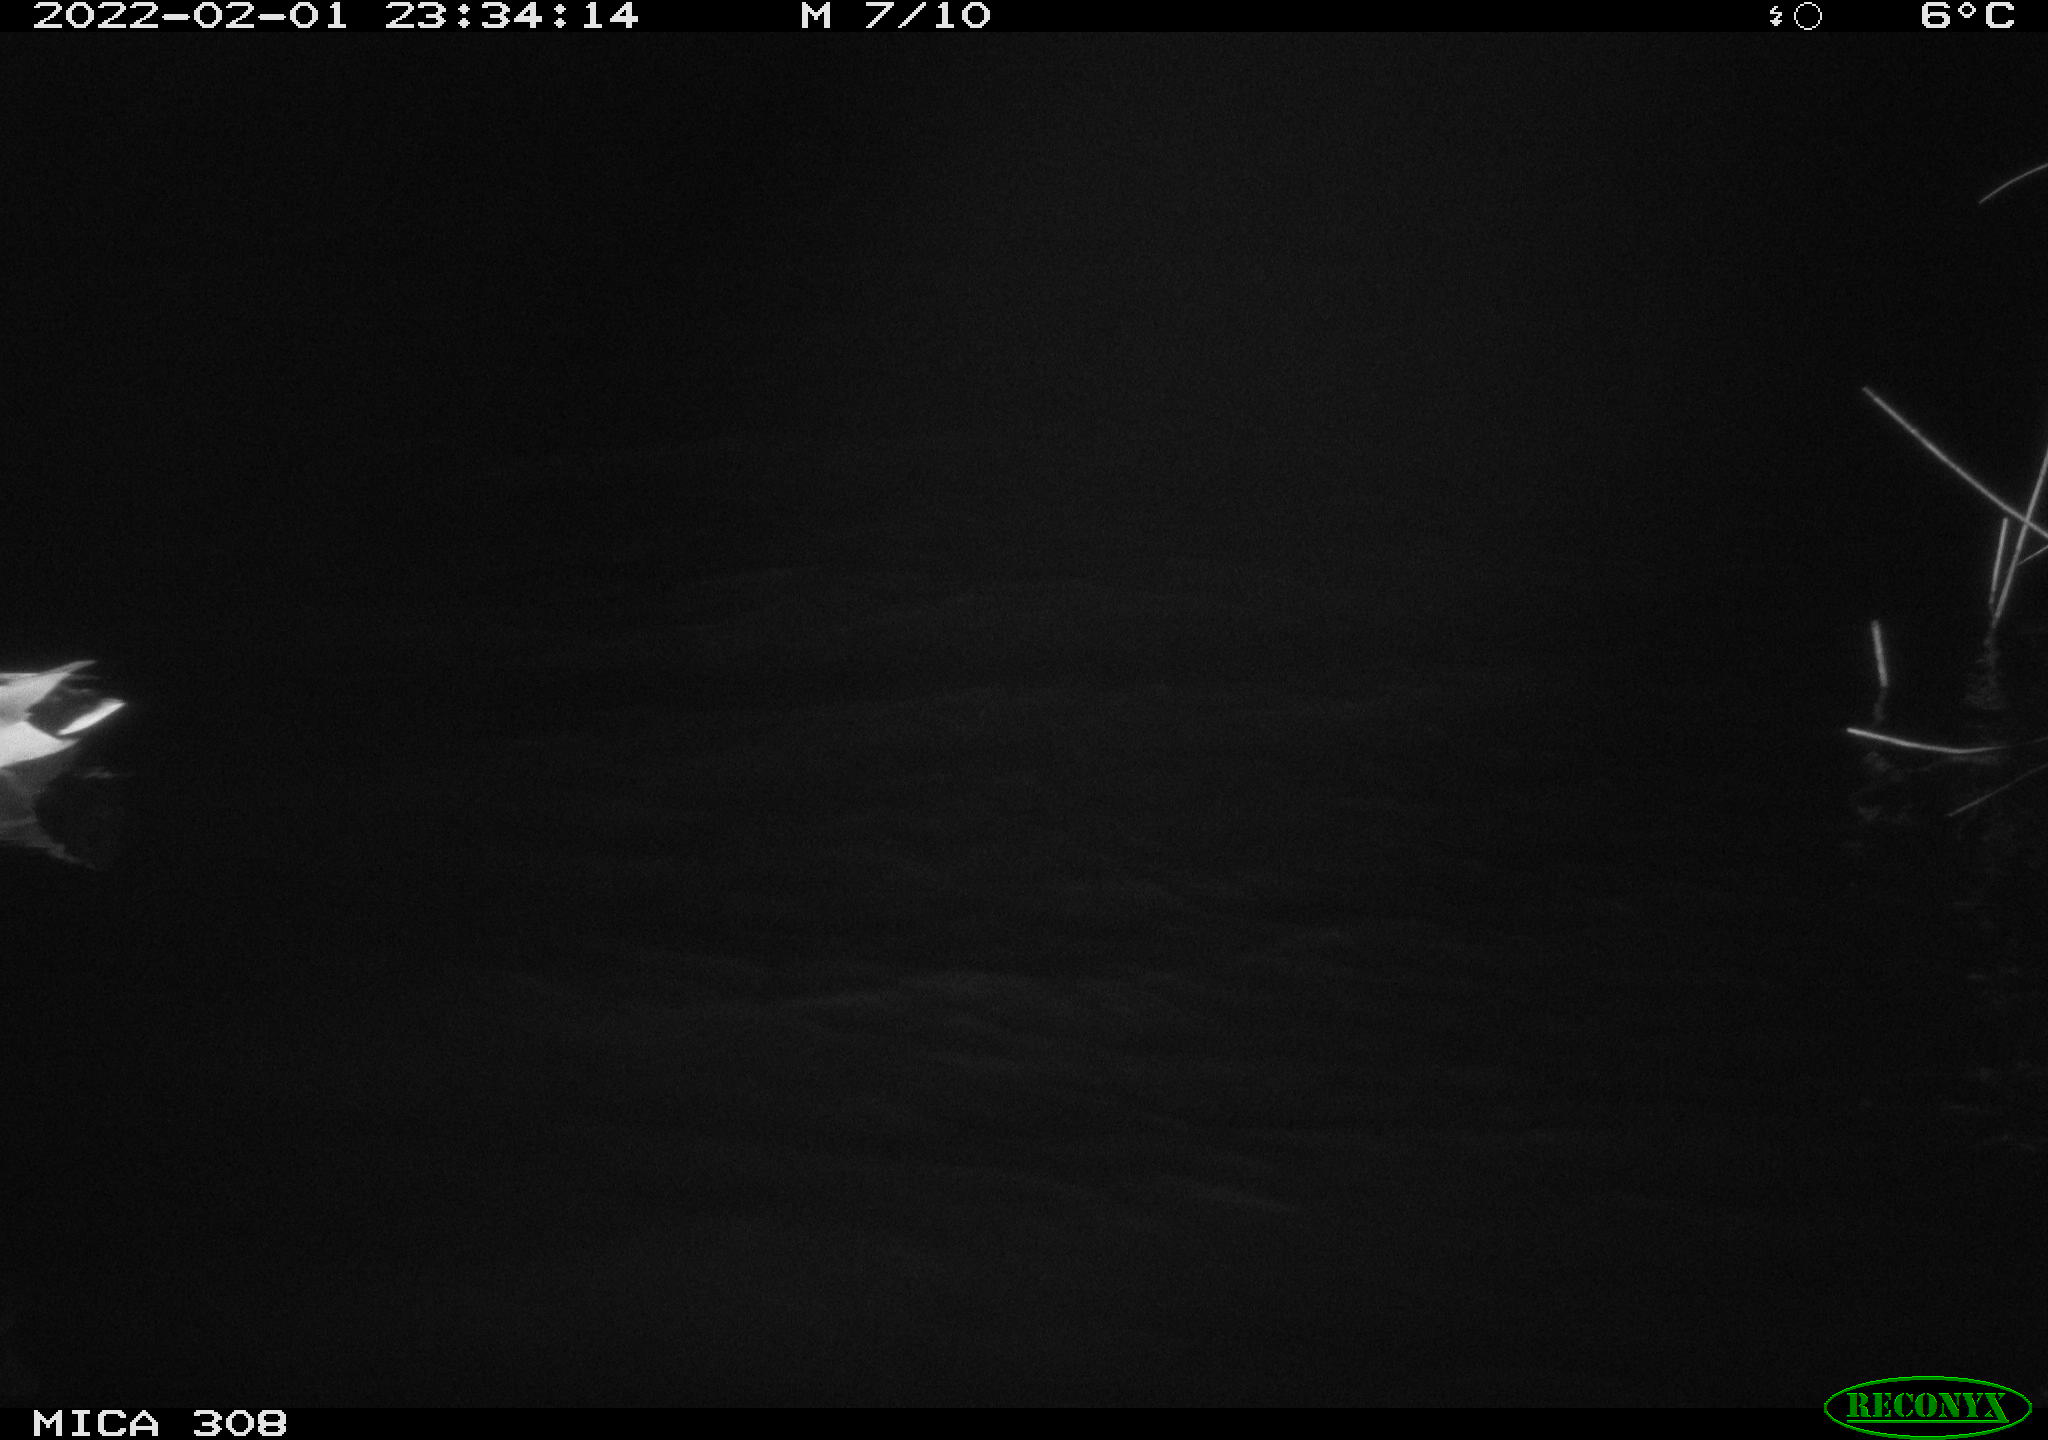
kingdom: Animalia
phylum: Chordata
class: Aves
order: Anseriformes
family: Anatidae
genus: Anas
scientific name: Anas
